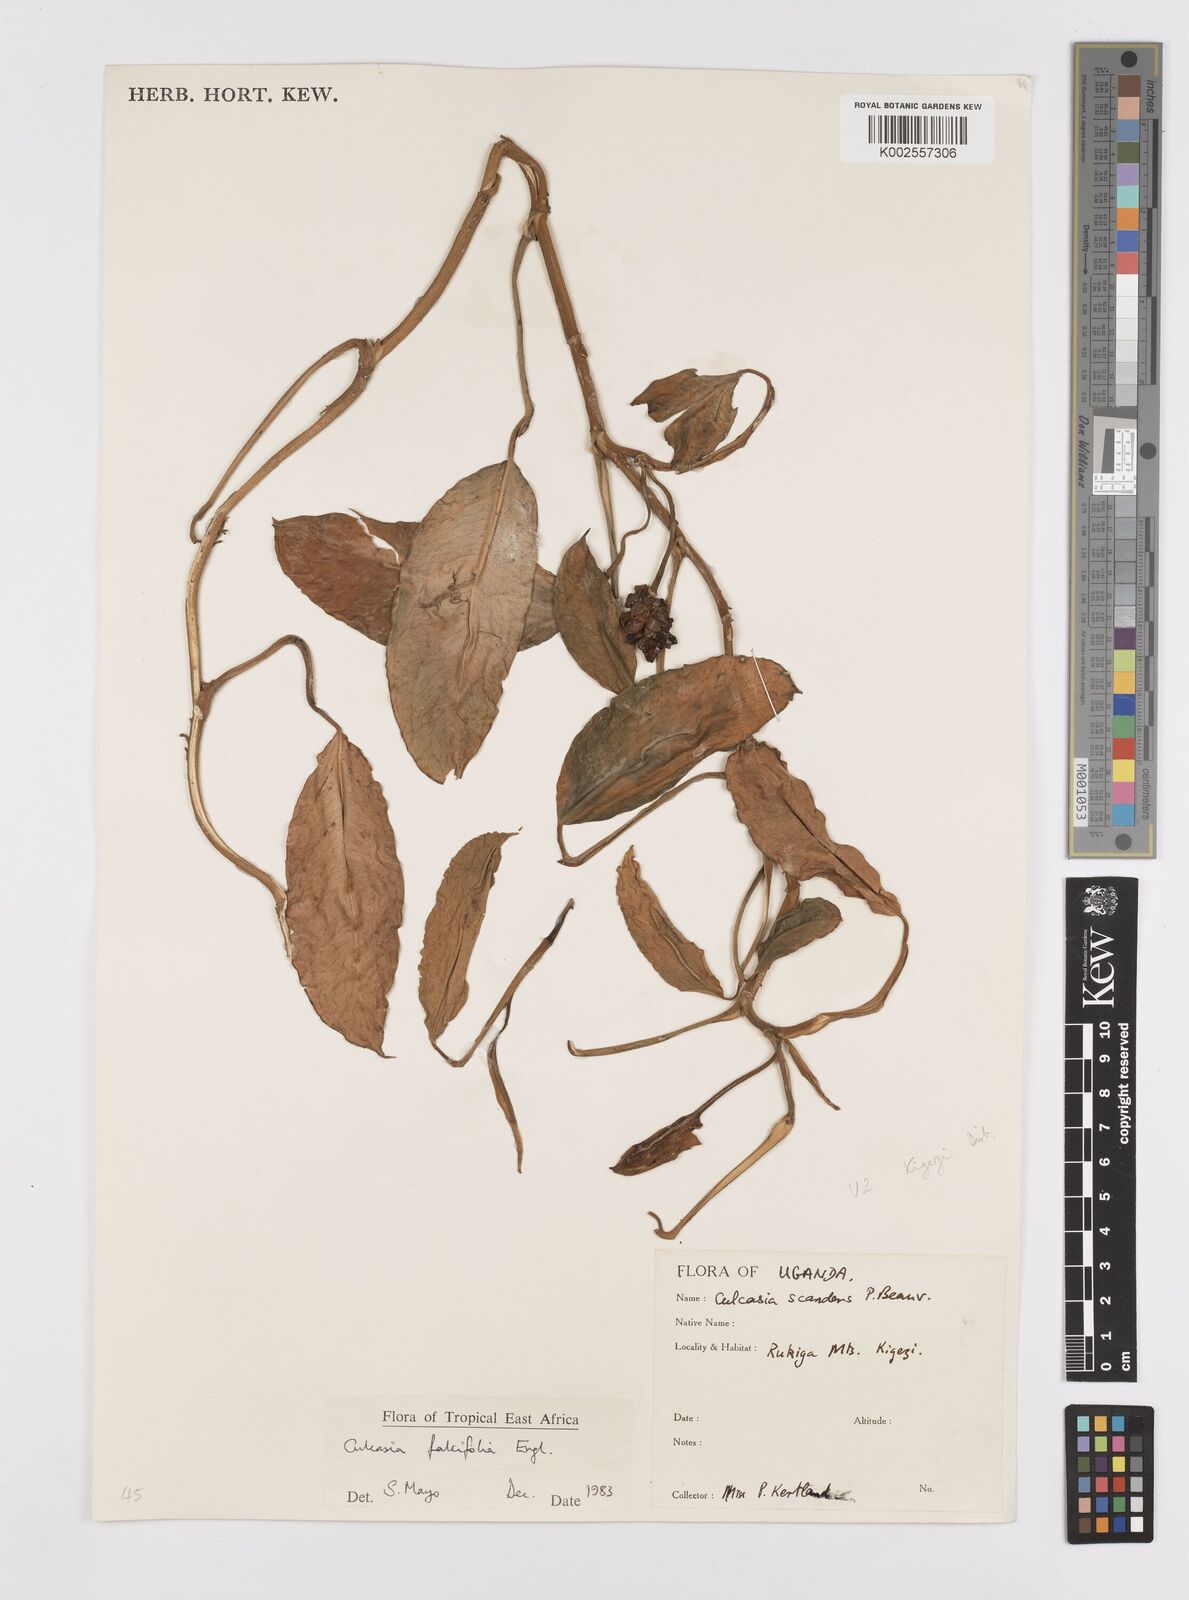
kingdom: Plantae
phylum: Tracheophyta
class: Liliopsida
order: Alismatales
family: Araceae
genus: Culcasia
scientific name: Culcasia falcifolia
